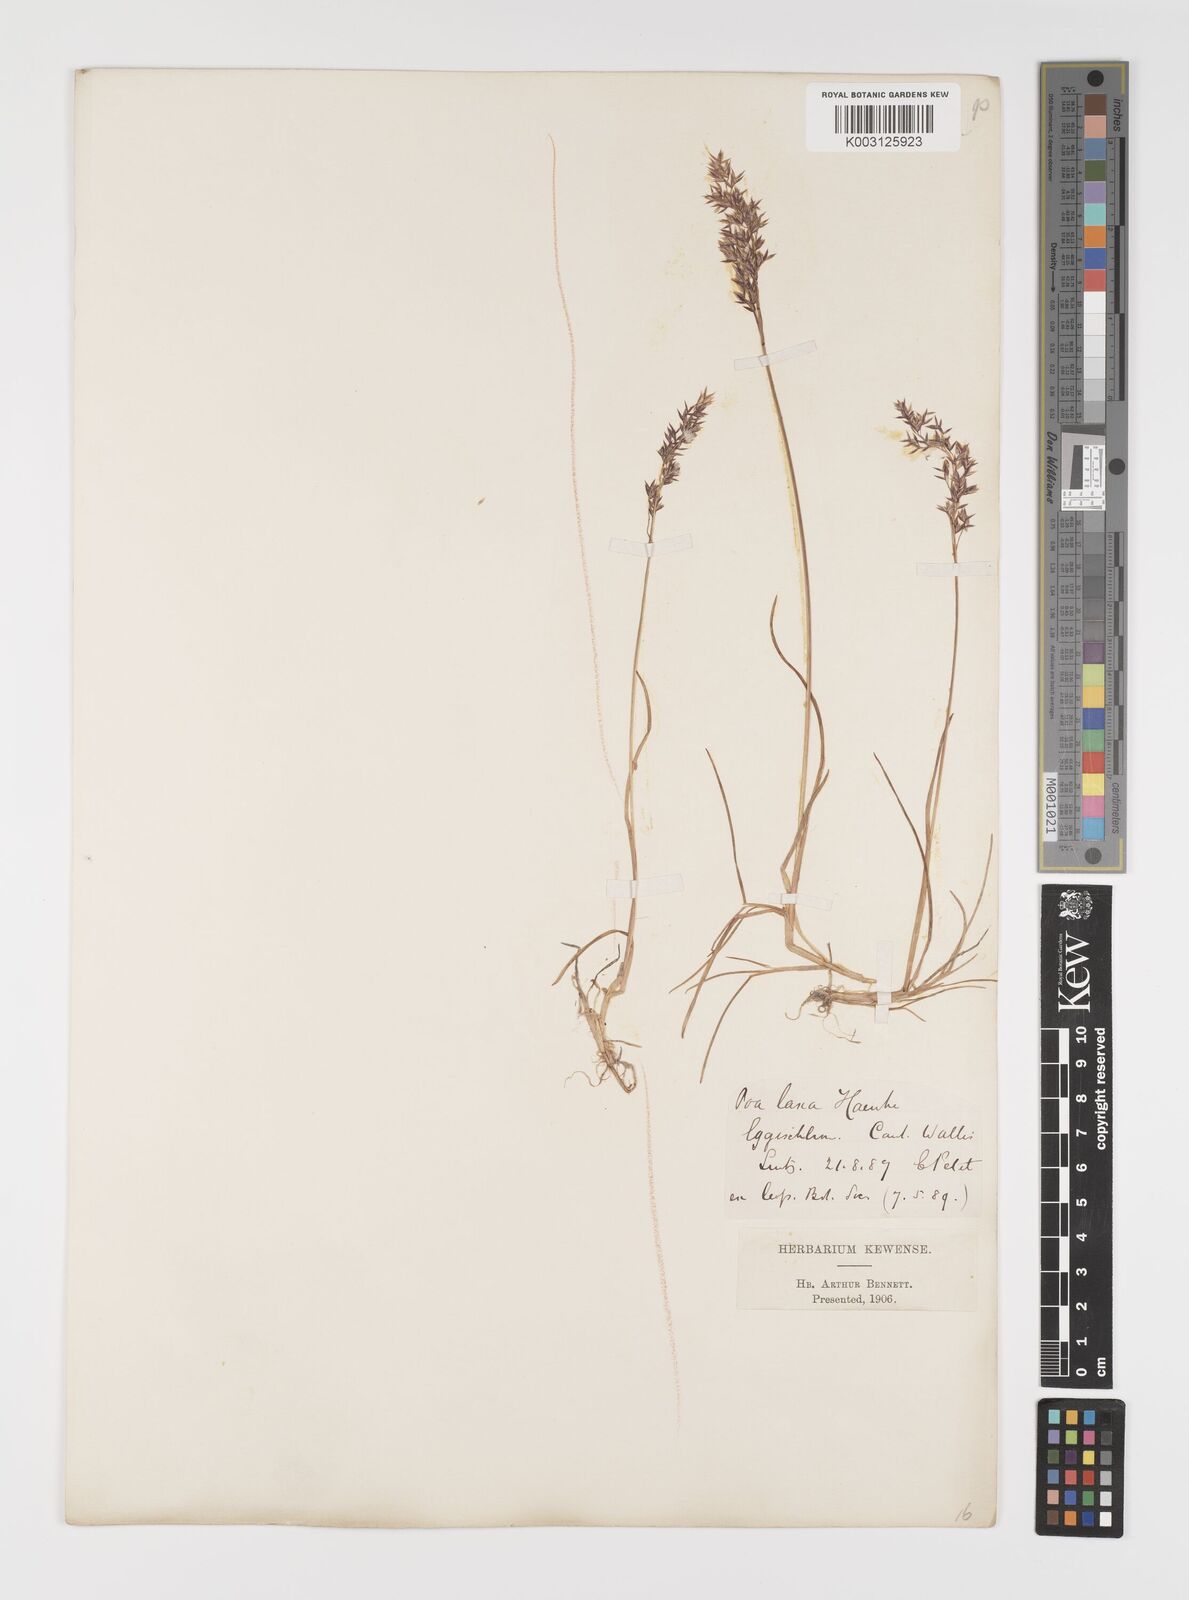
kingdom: Plantae
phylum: Tracheophyta
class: Liliopsida
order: Poales
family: Poaceae
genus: Poa
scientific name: Poa laxa
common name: Lax bluegrass
